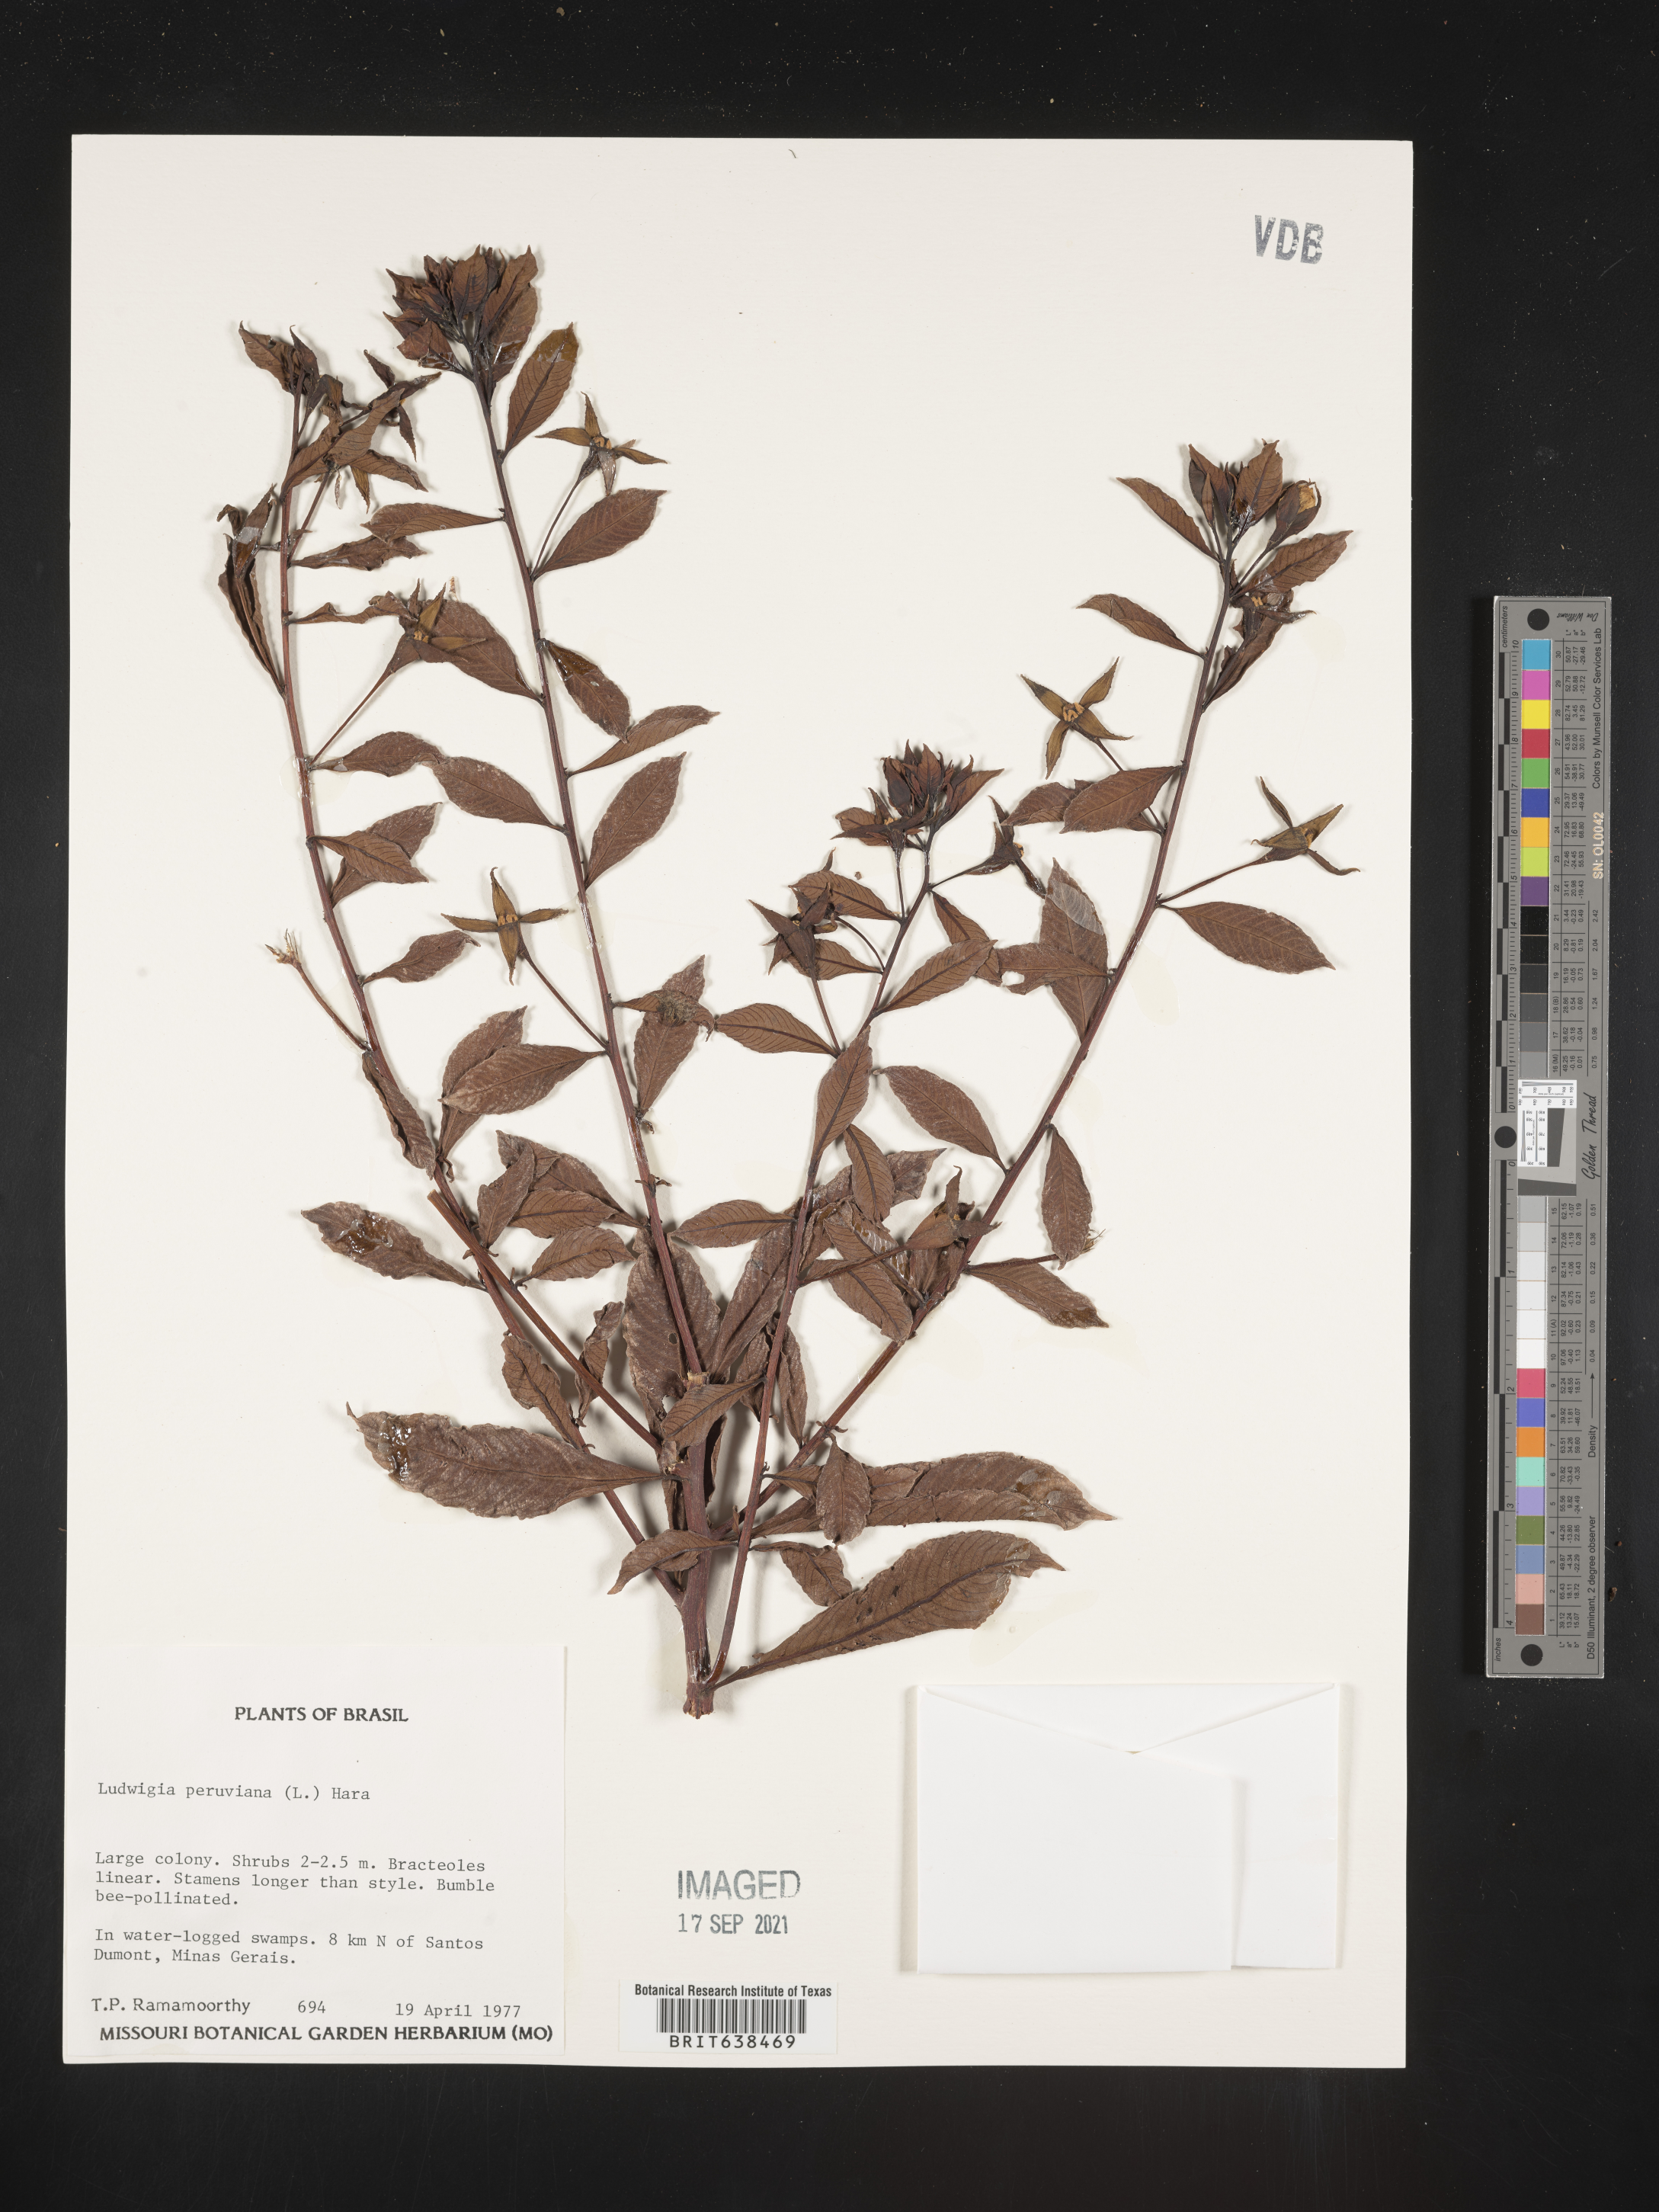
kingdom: Plantae
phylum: Tracheophyta
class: Magnoliopsida
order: Myrtales
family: Onagraceae
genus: Ludwigia
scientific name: Ludwigia
